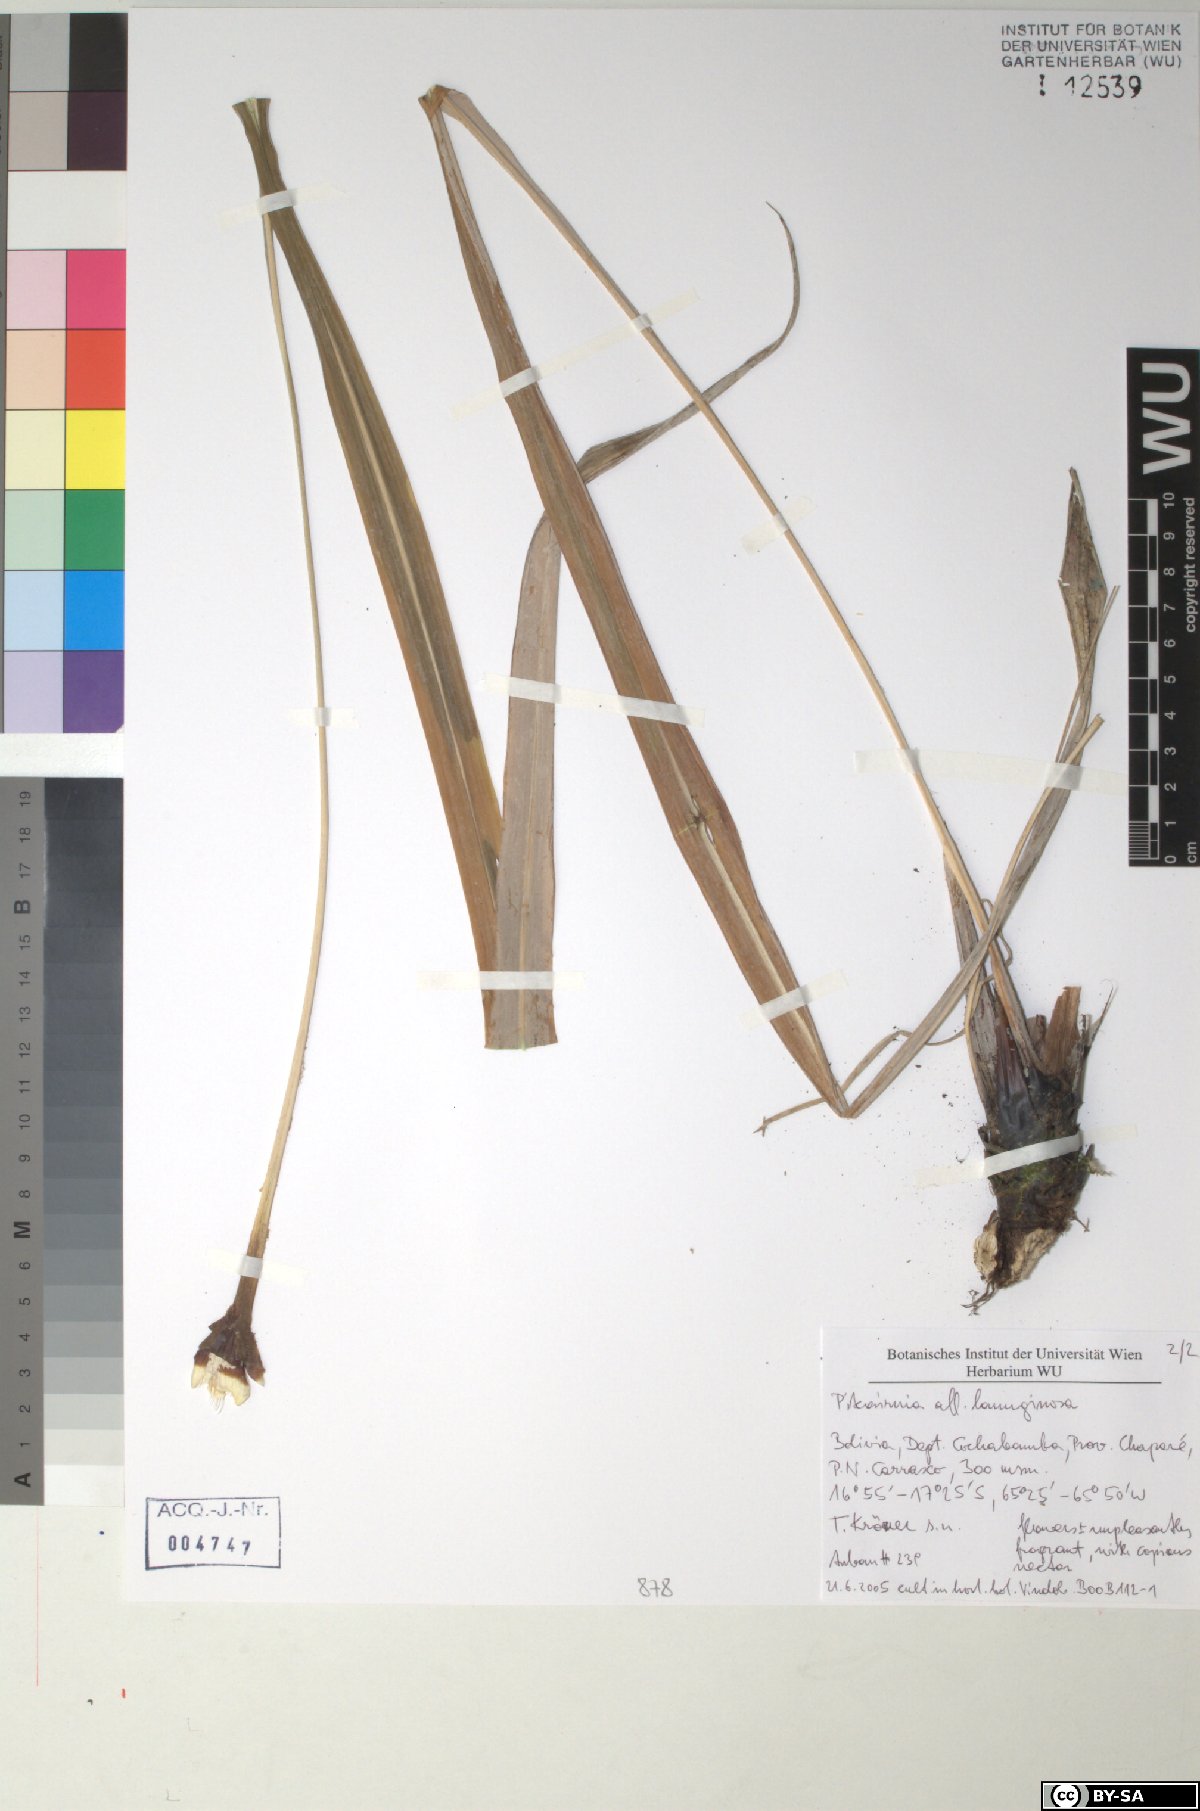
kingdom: Plantae
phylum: Tracheophyta
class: Liliopsida
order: Poales
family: Bromeliaceae
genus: Pitcairnia
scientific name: Pitcairnia lanuginosa
